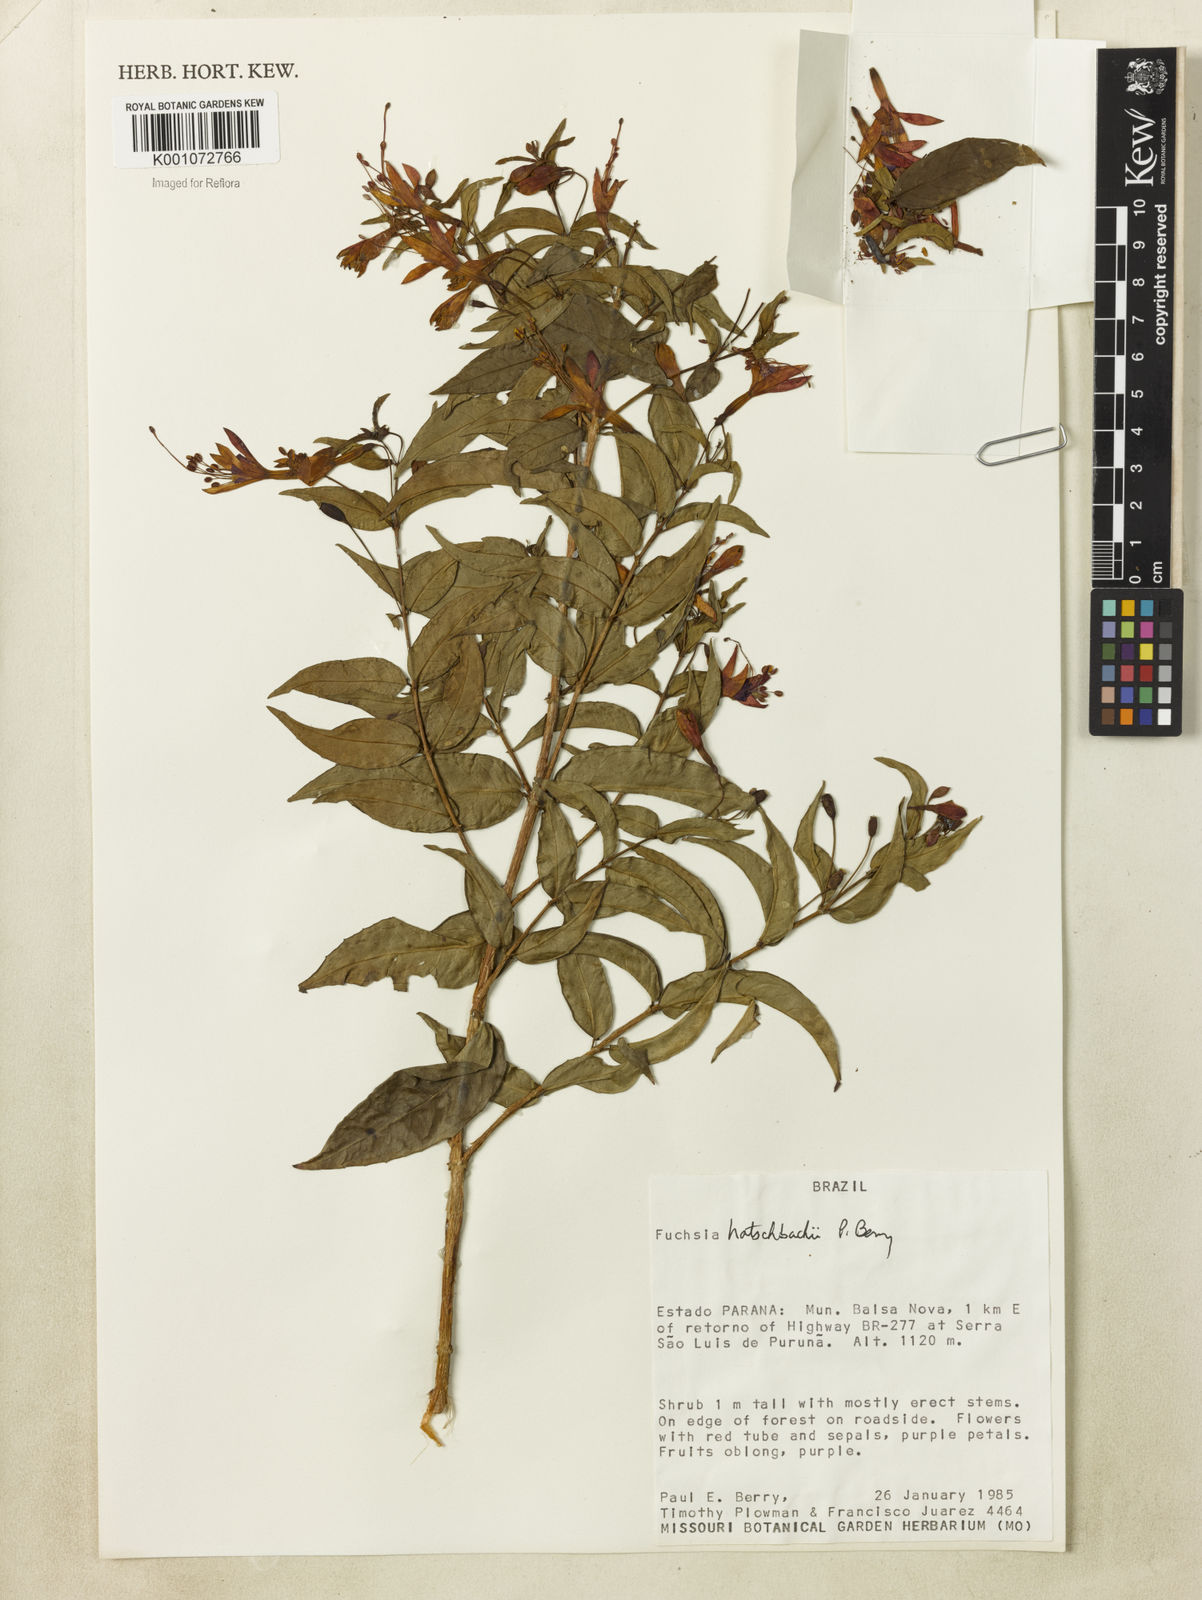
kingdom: Plantae
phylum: Tracheophyta
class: Magnoliopsida
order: Myrtales
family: Onagraceae
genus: Fuchsia
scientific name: Fuchsia hatschbachii
